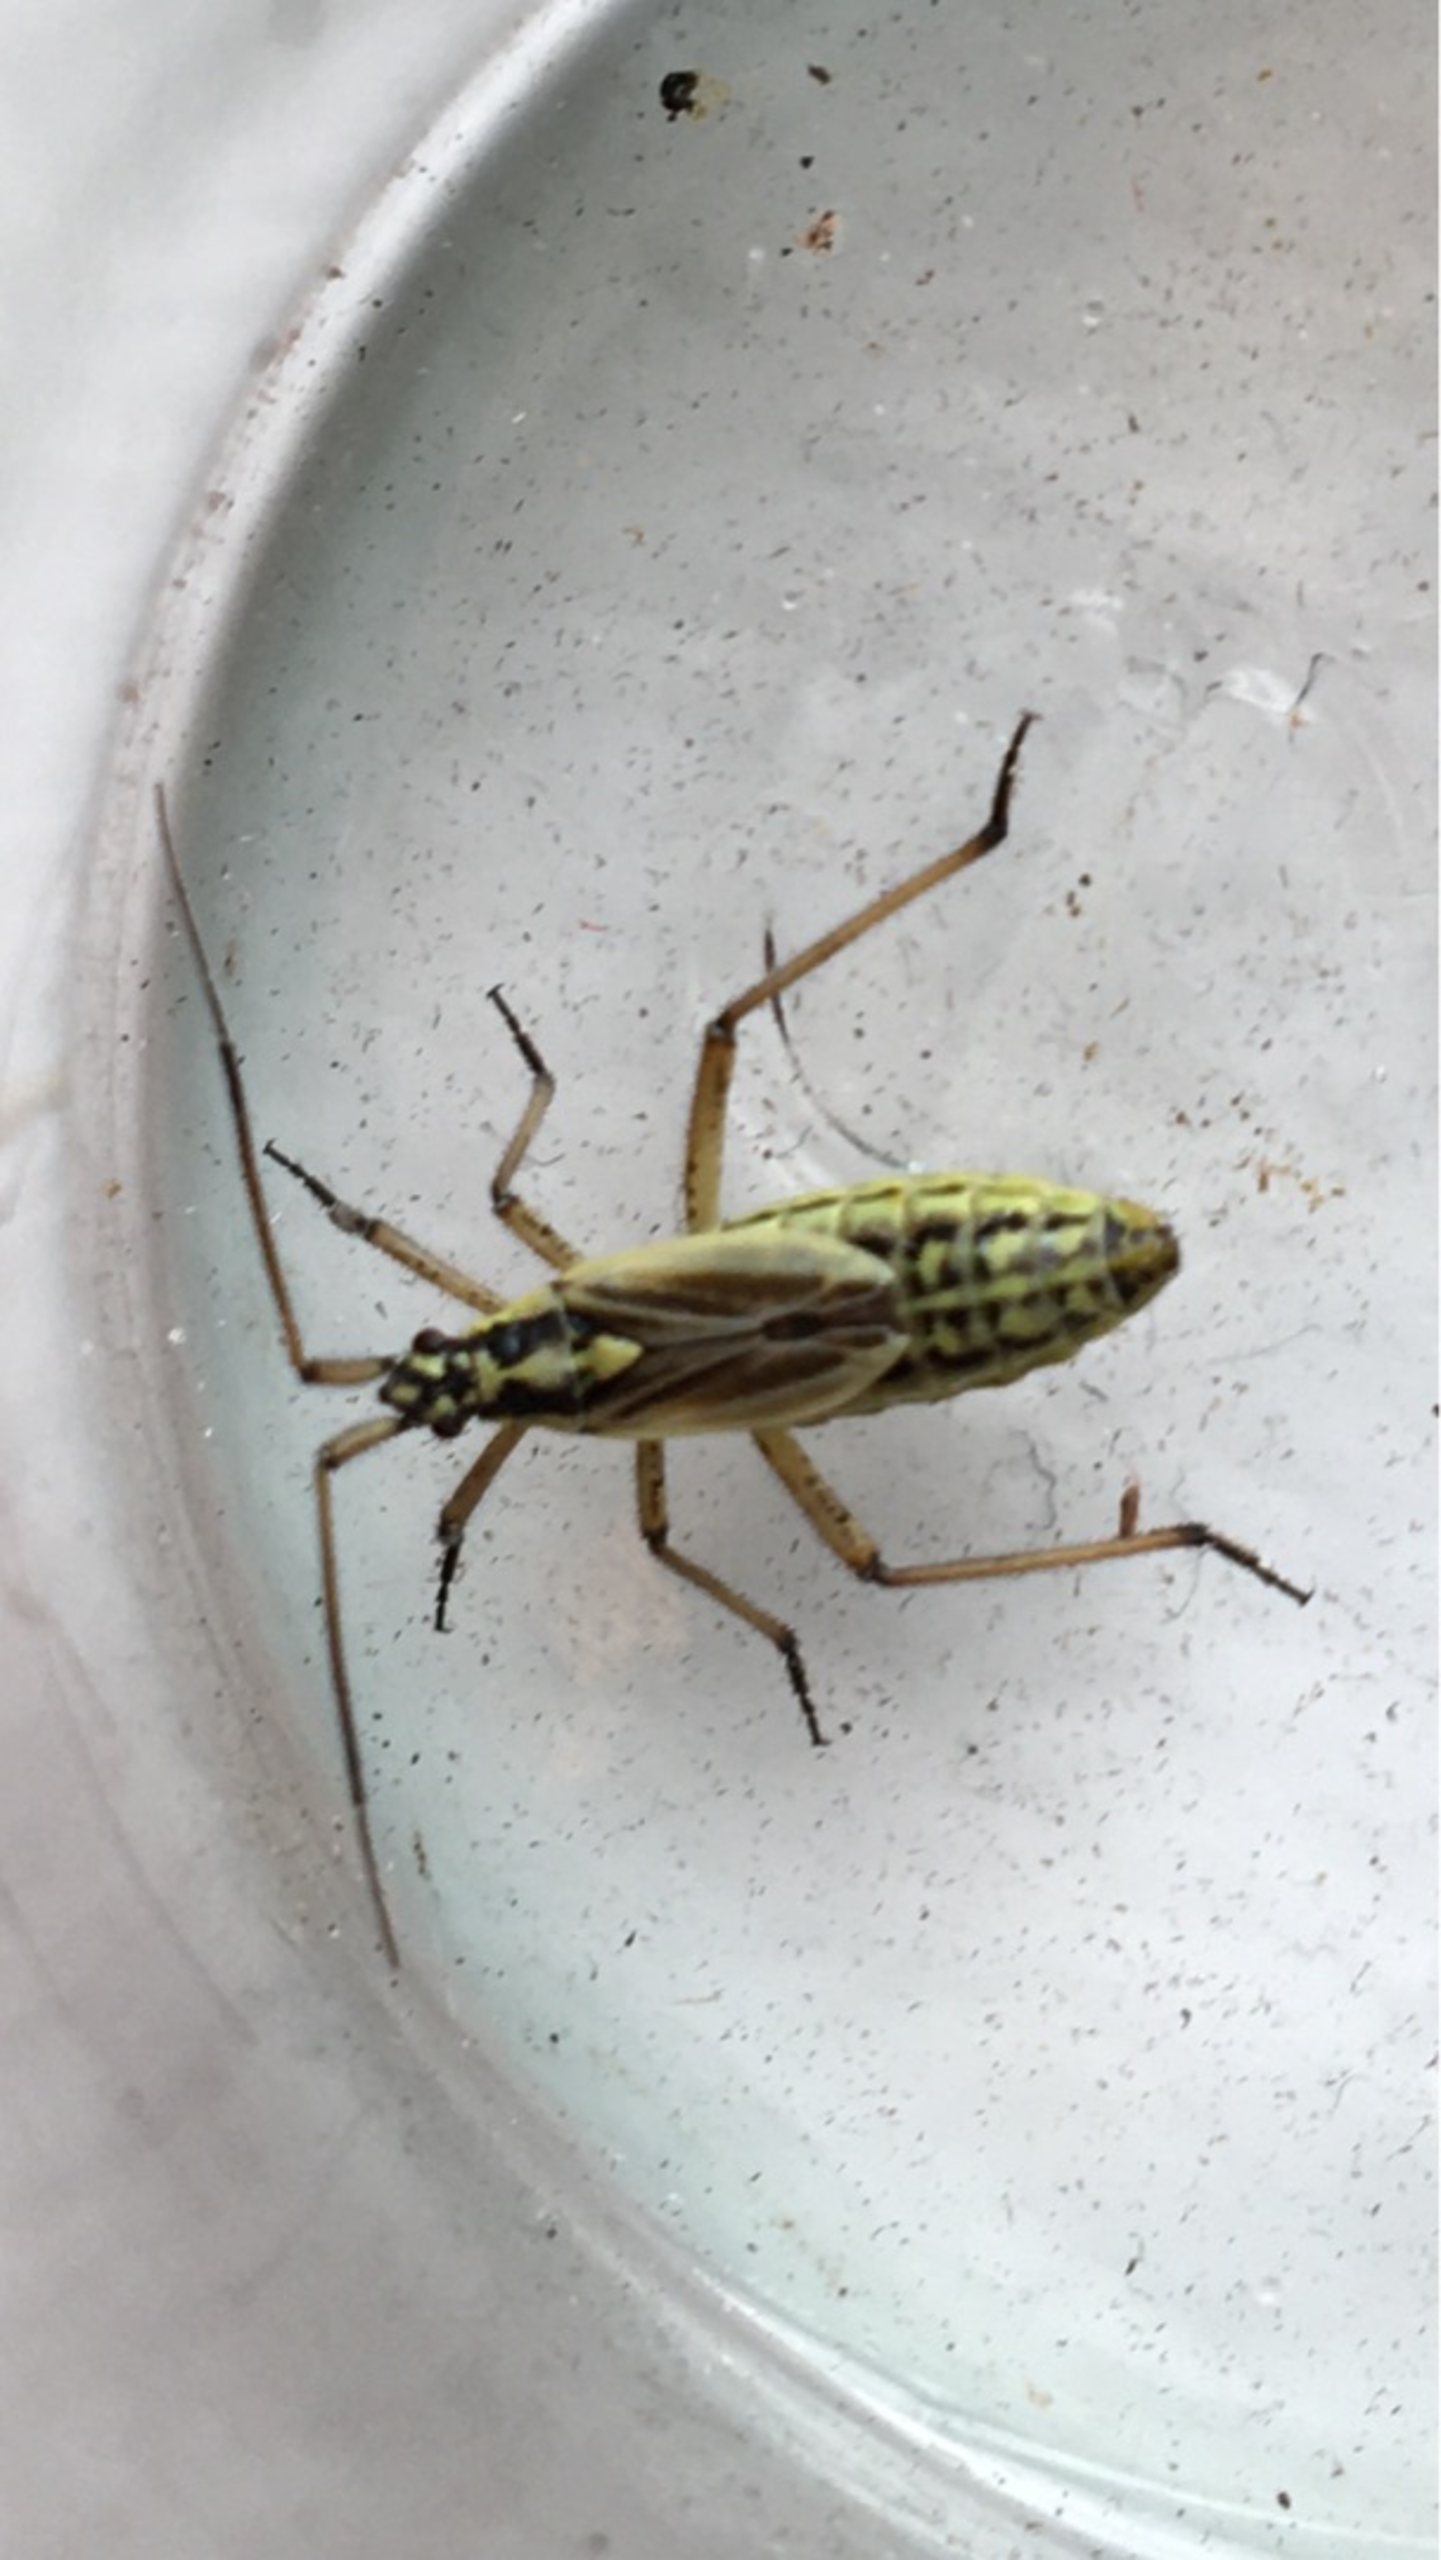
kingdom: Animalia
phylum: Arthropoda
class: Insecta
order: Hemiptera
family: Miridae
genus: Leptopterna
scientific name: Leptopterna dolabrata
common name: Almindelig græstæge
